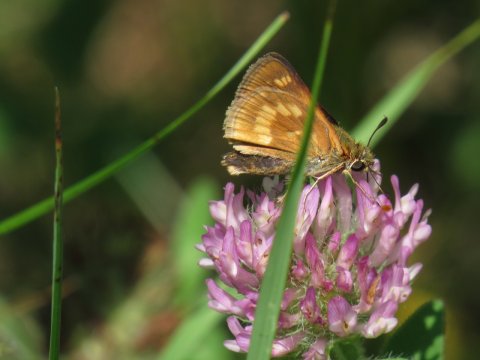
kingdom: Animalia
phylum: Arthropoda
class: Insecta
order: Lepidoptera
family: Hesperiidae
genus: Polites
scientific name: Polites
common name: Long Dash Skipper
